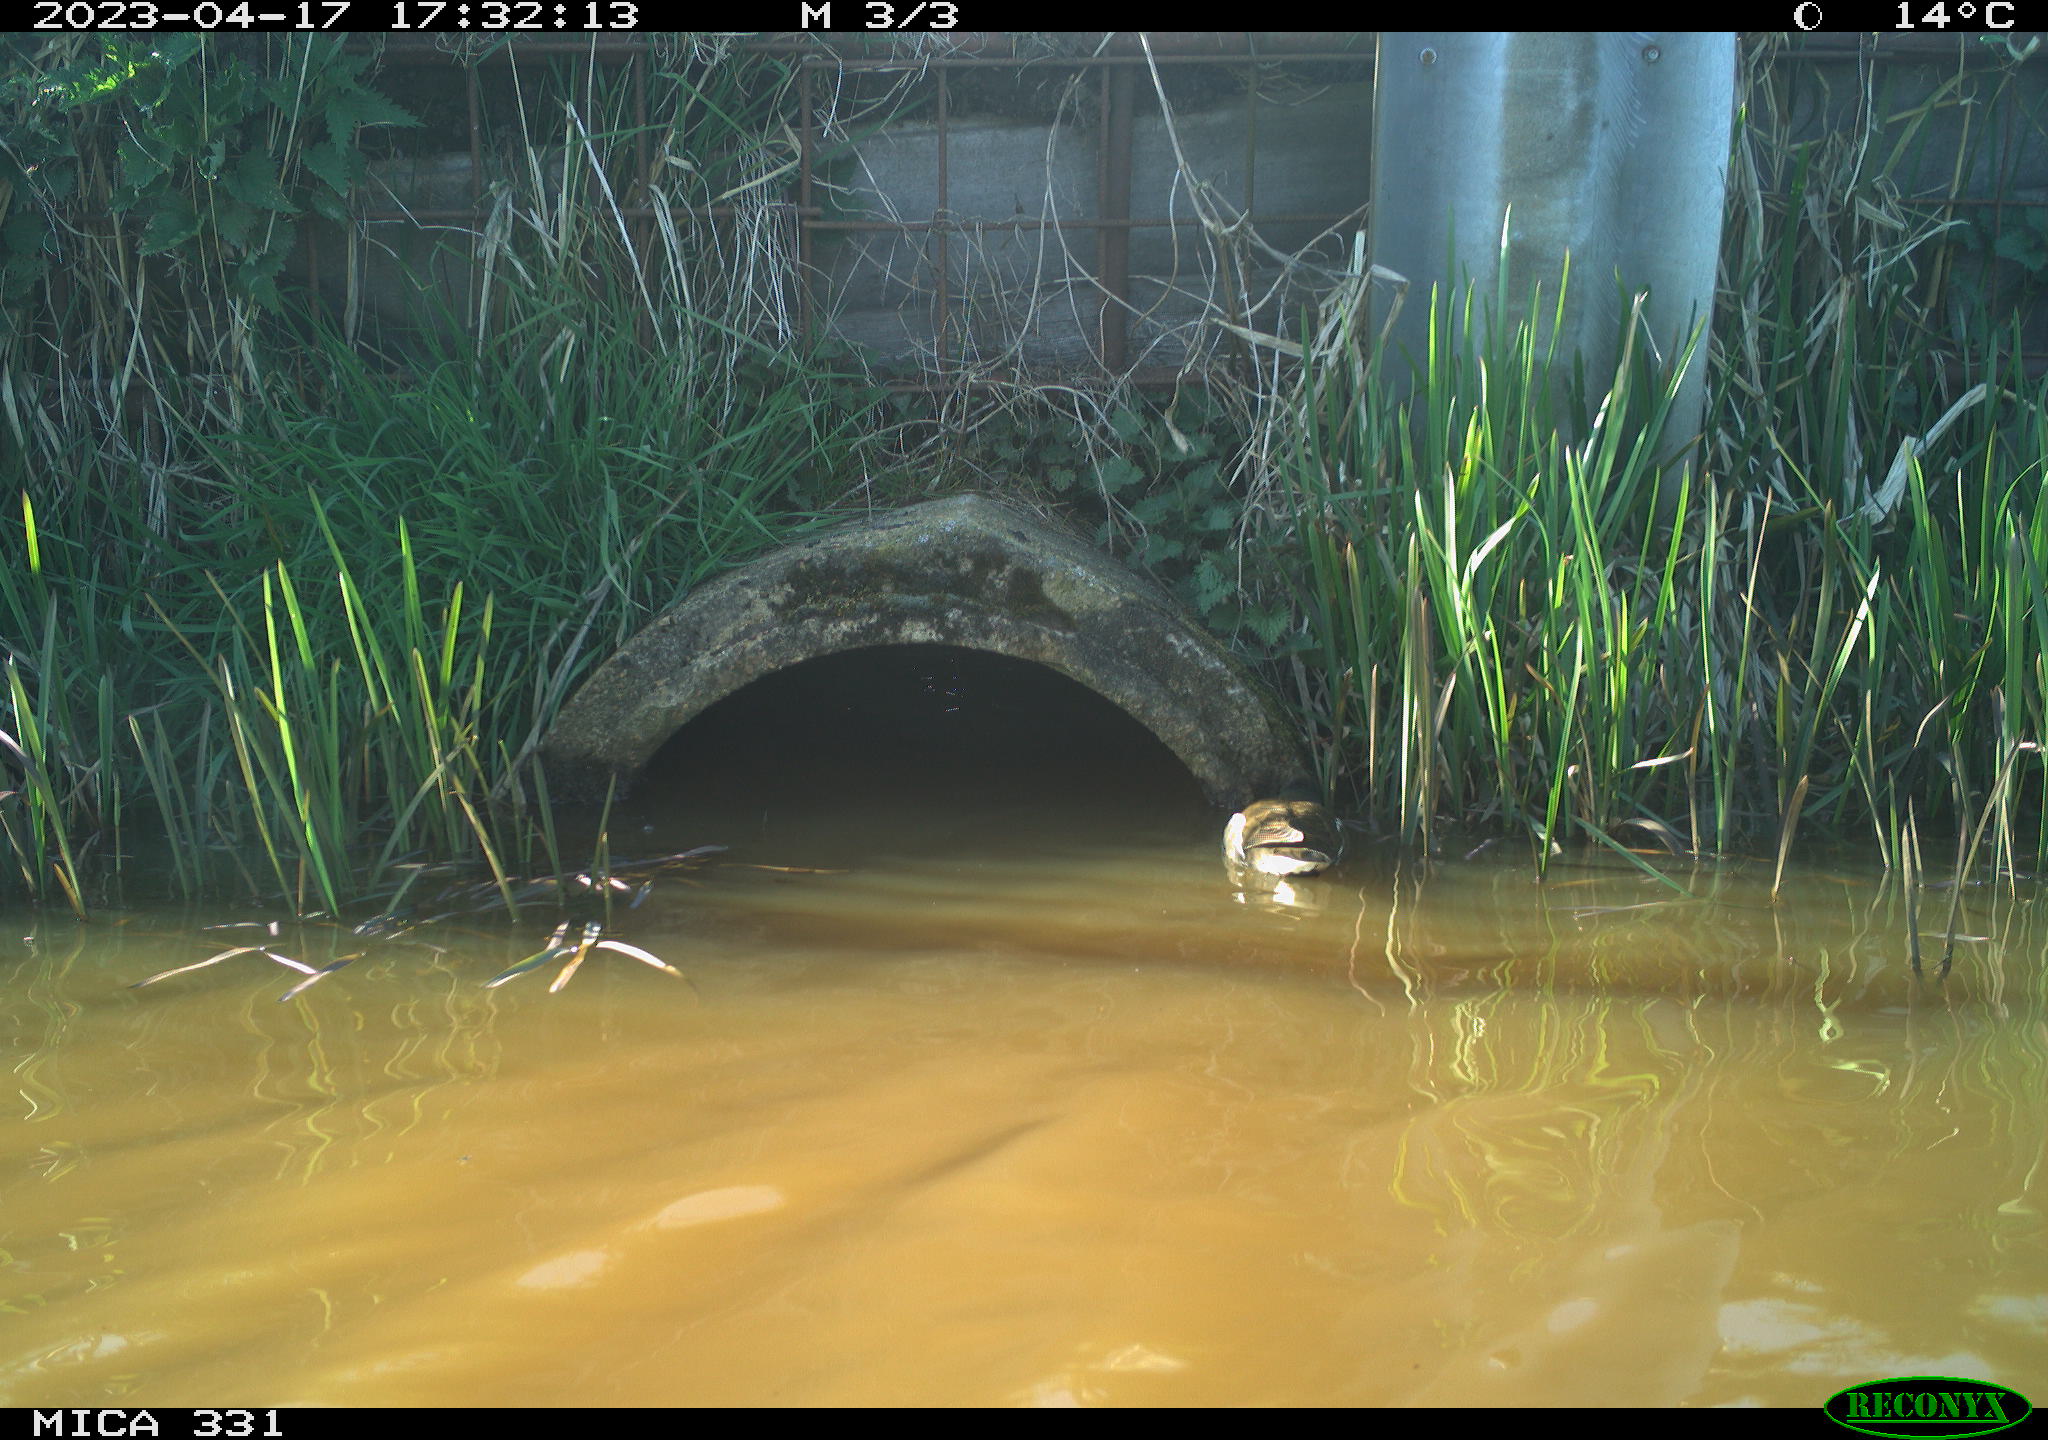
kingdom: Animalia
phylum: Chordata
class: Aves
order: Gruiformes
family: Rallidae
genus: Gallinula
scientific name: Gallinula chloropus
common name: Common moorhen
